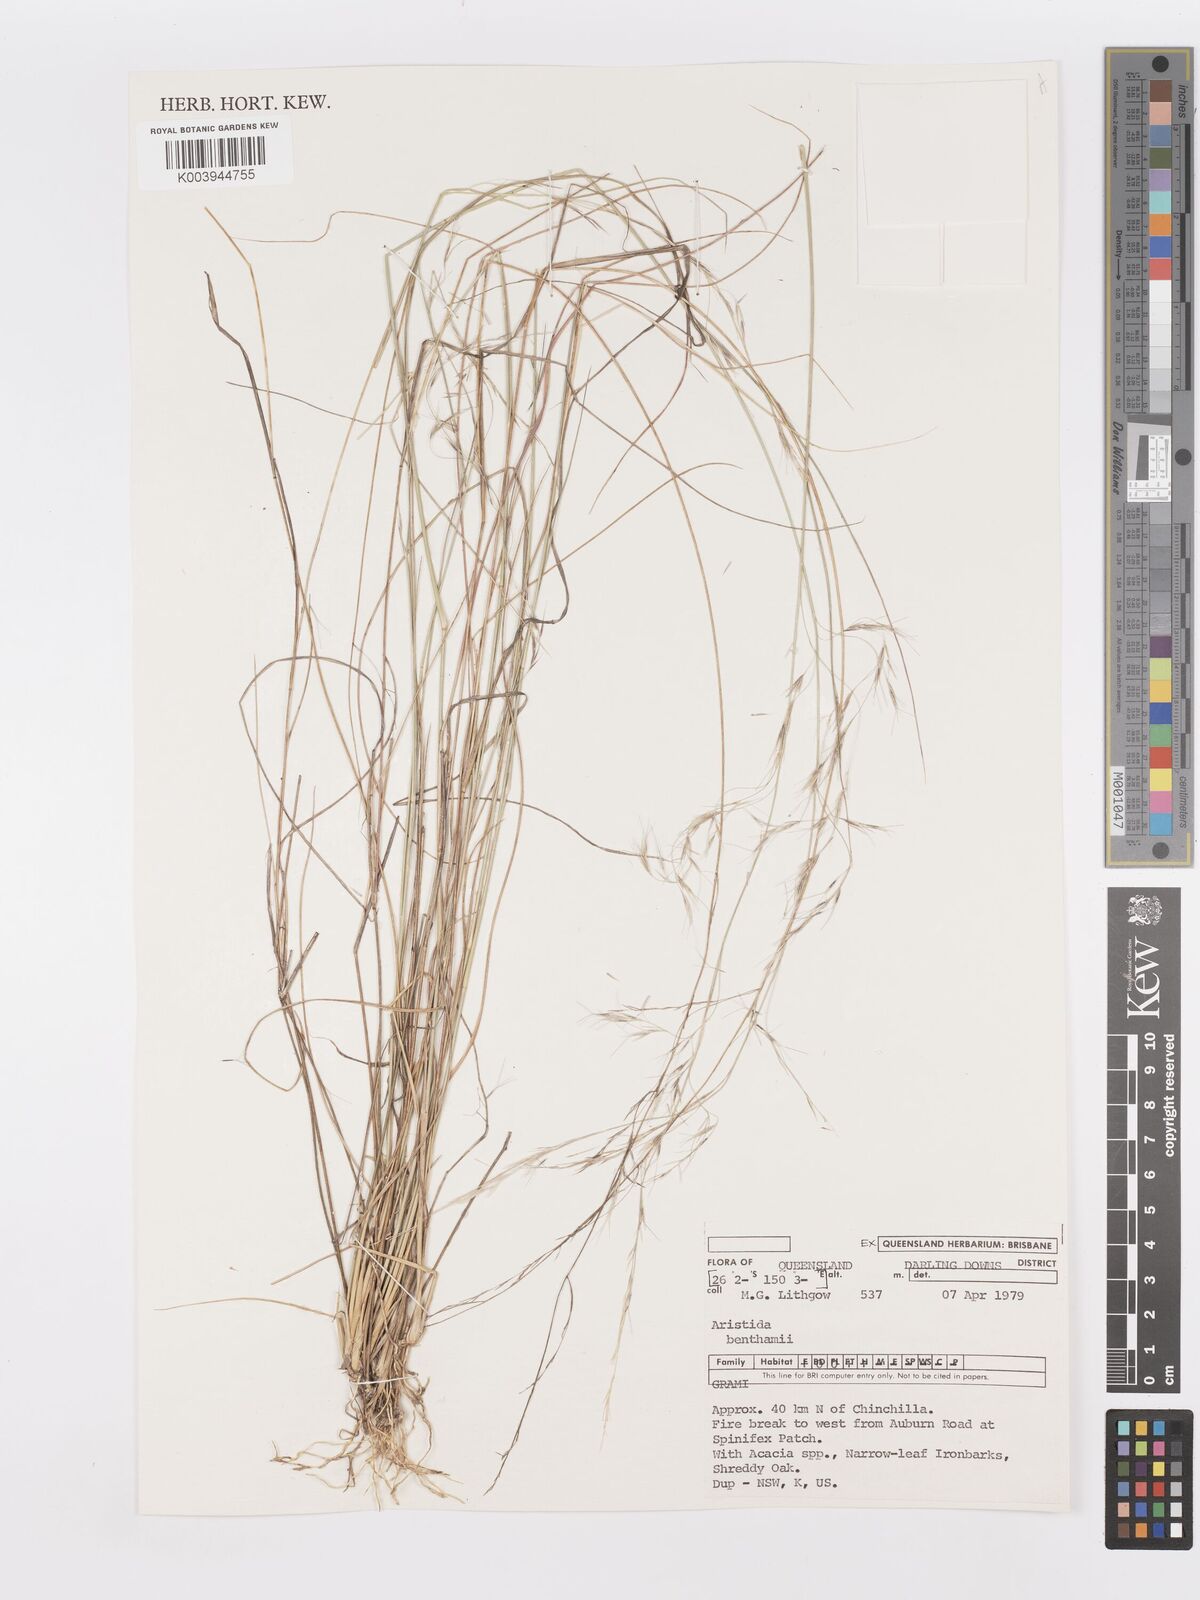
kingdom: Plantae
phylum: Tracheophyta
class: Liliopsida
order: Poales
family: Poaceae
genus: Aristida
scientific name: Aristida benthamii
